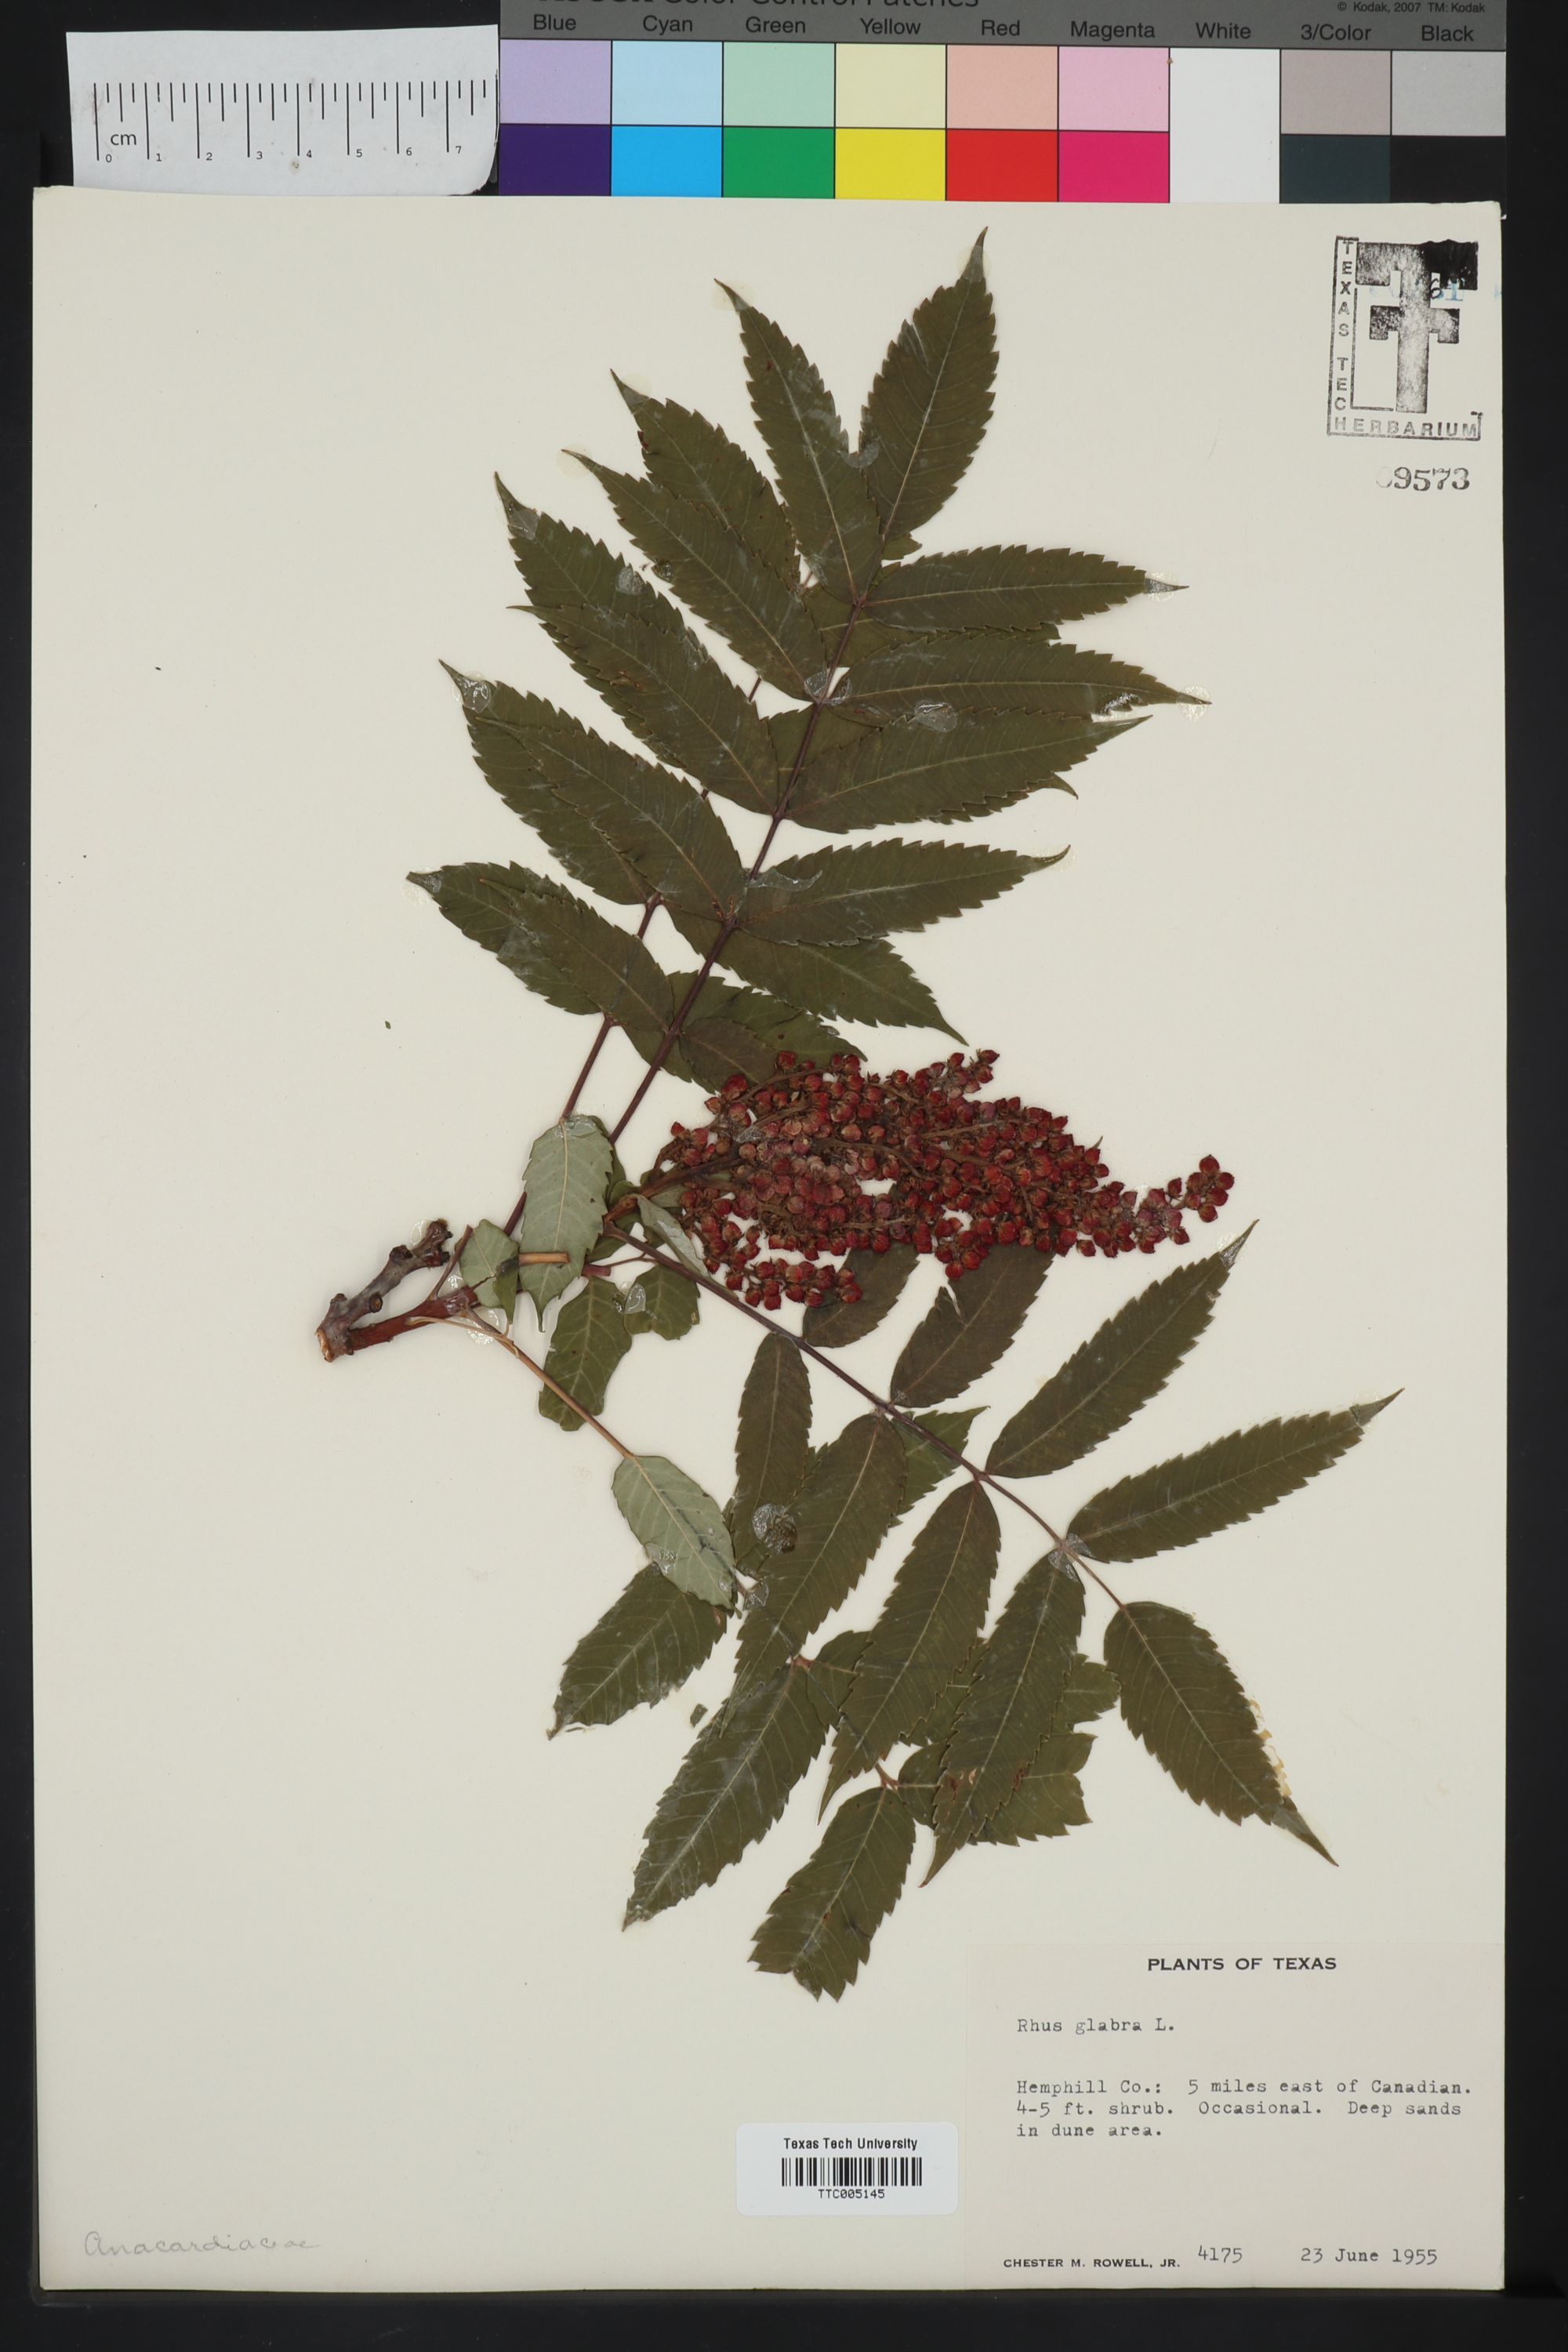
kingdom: Plantae
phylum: Tracheophyta
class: Magnoliopsida
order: Sapindales
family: Anacardiaceae
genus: Rhus
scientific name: Rhus glabra
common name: Scarlet sumac
